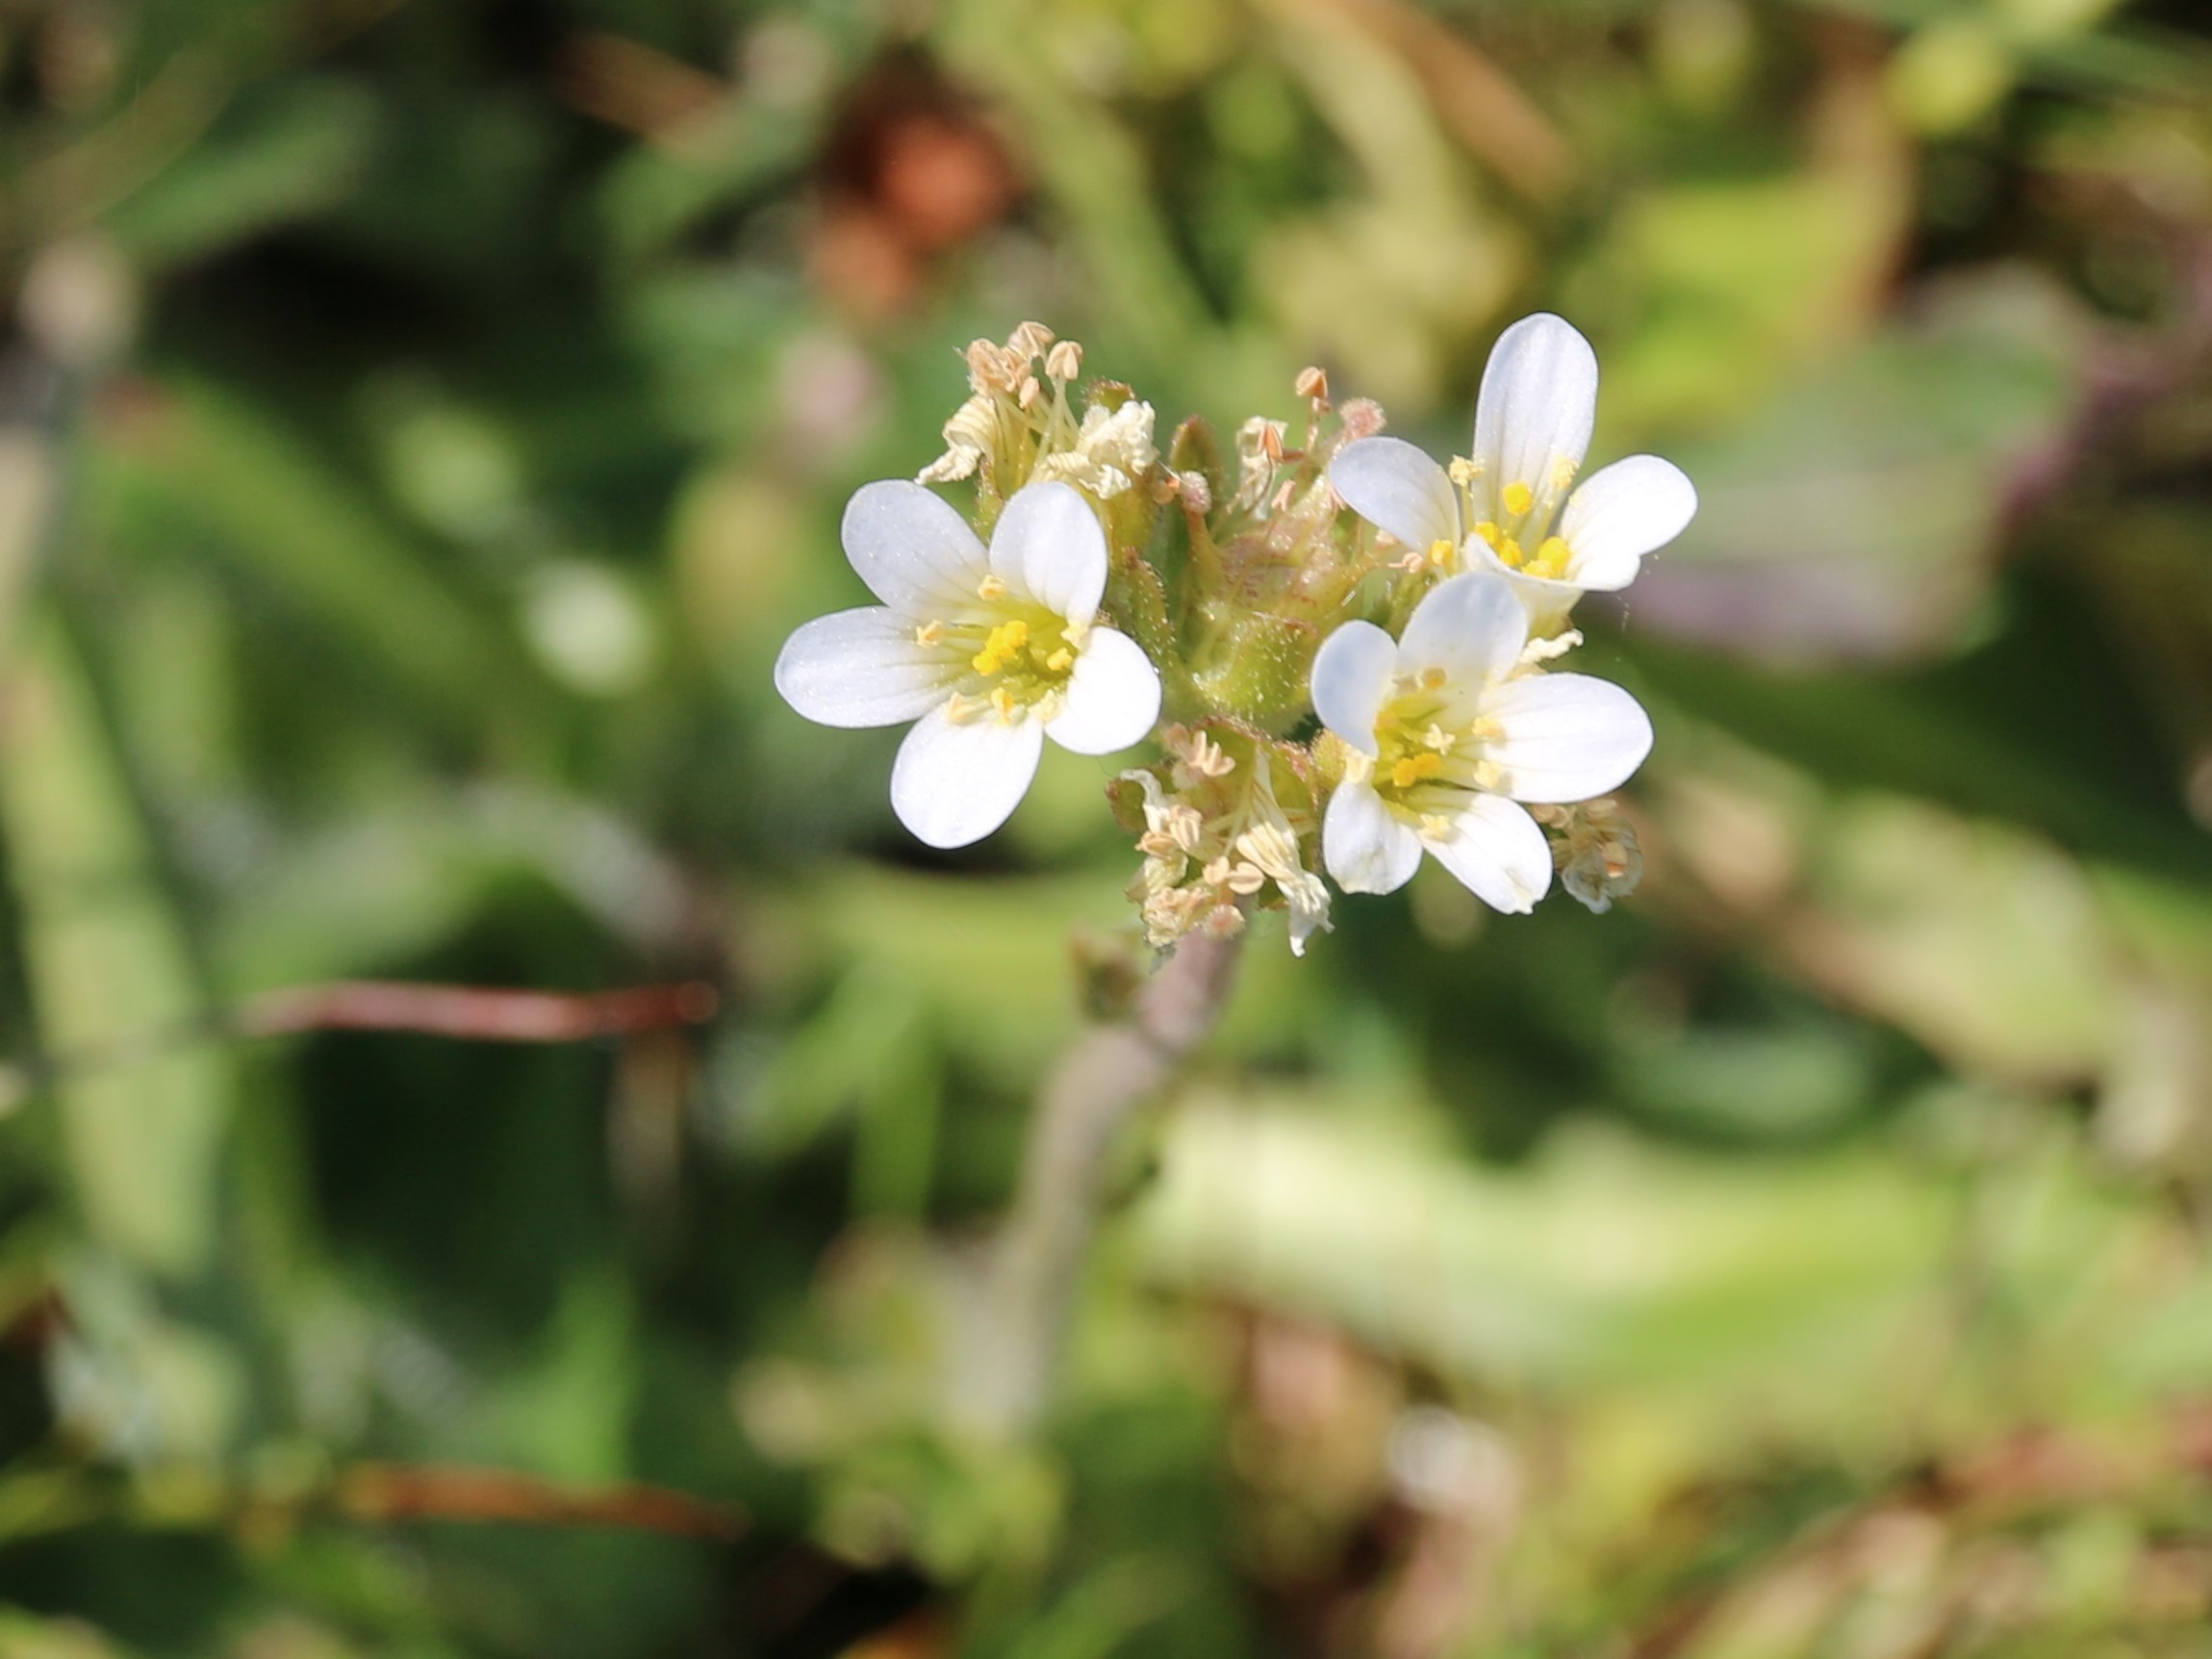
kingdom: Plantae
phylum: Tracheophyta
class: Magnoliopsida
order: Saxifragales
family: Saxifragaceae
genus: Saxifraga
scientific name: Saxifraga granulata
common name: Kornet stenbræk
